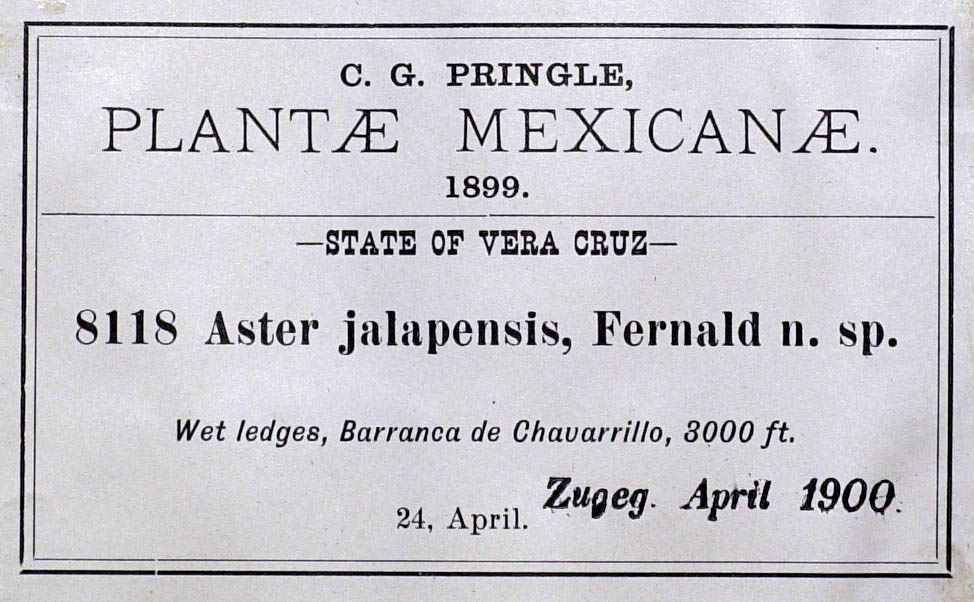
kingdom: Plantae
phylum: Tracheophyta
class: Magnoliopsida
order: Asterales
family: Asteraceae
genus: Symphyotrichum
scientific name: Symphyotrichum bullatum
